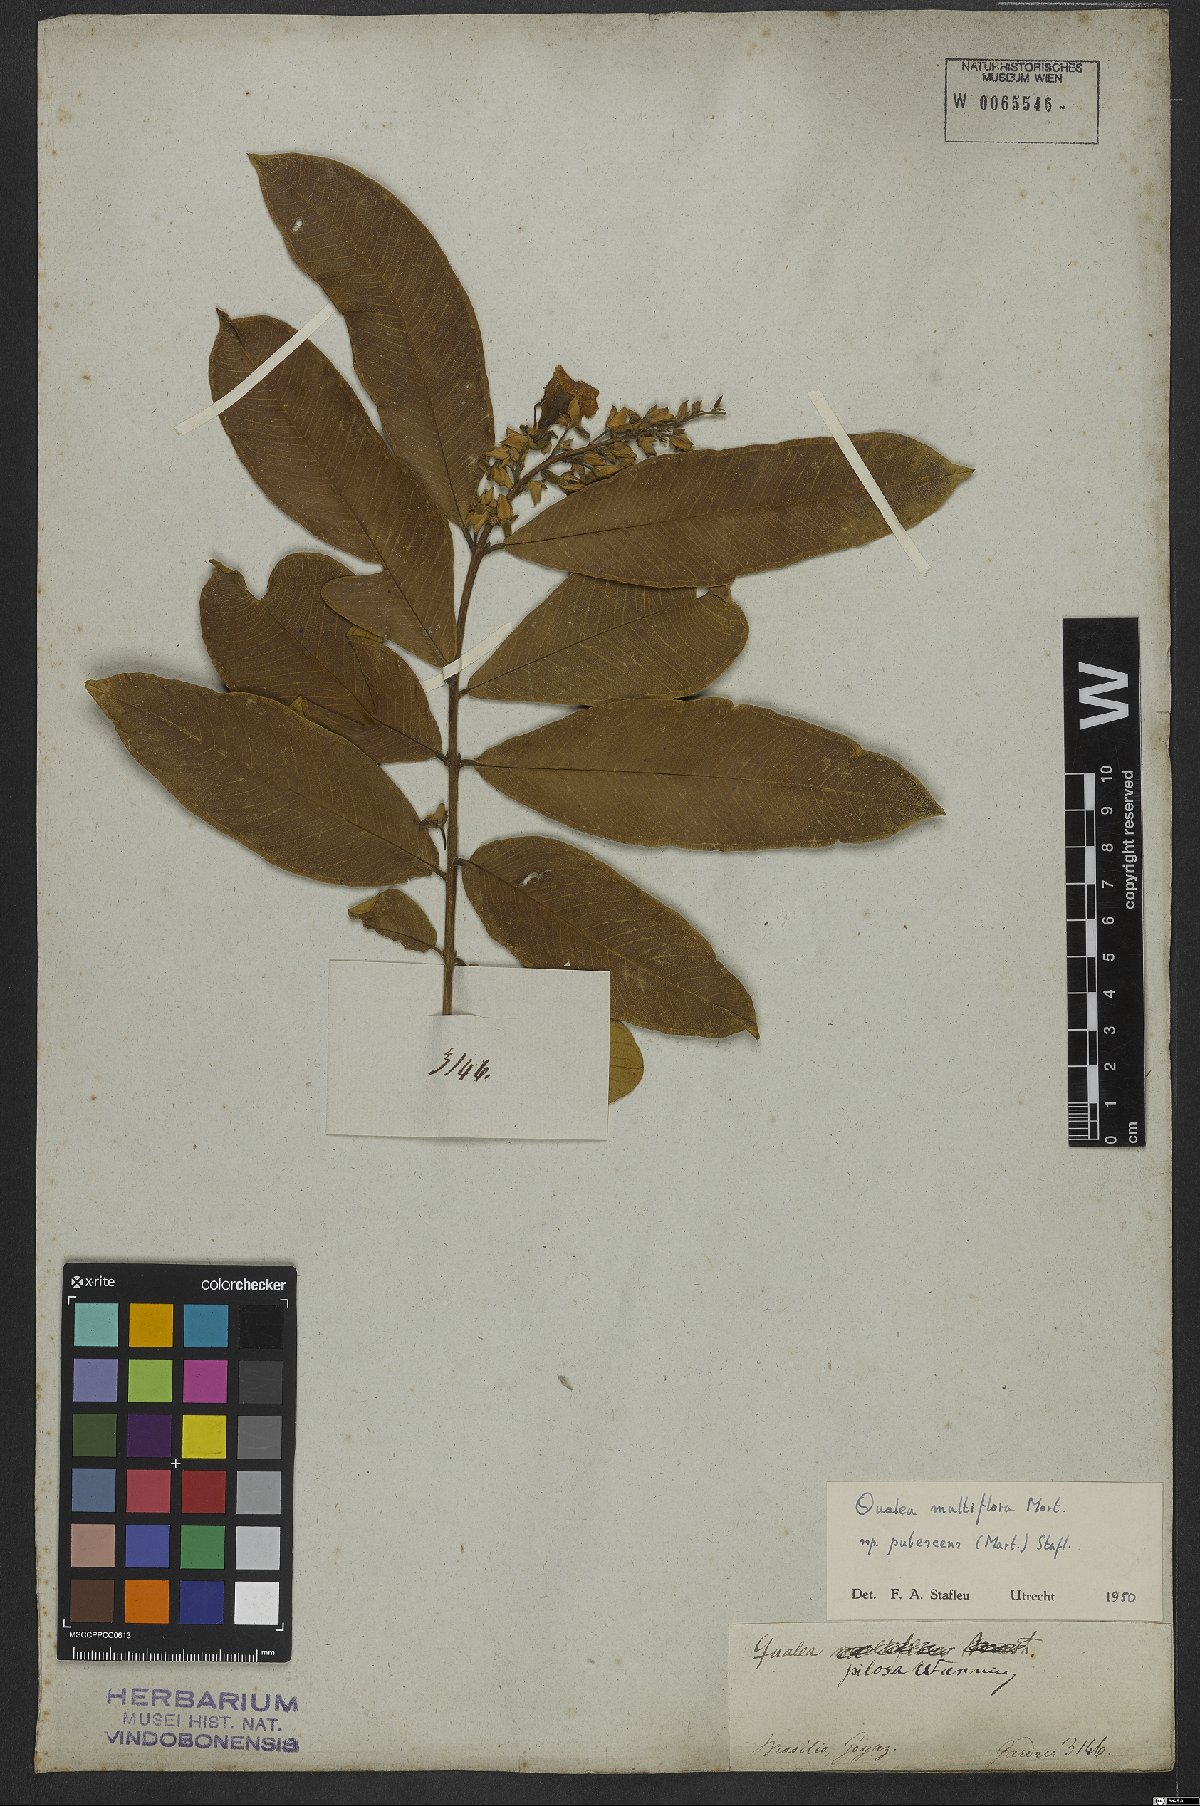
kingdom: Plantae
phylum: Tracheophyta
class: Magnoliopsida
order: Myrtales
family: Vochysiaceae
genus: Qualea
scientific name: Qualea multiflora
